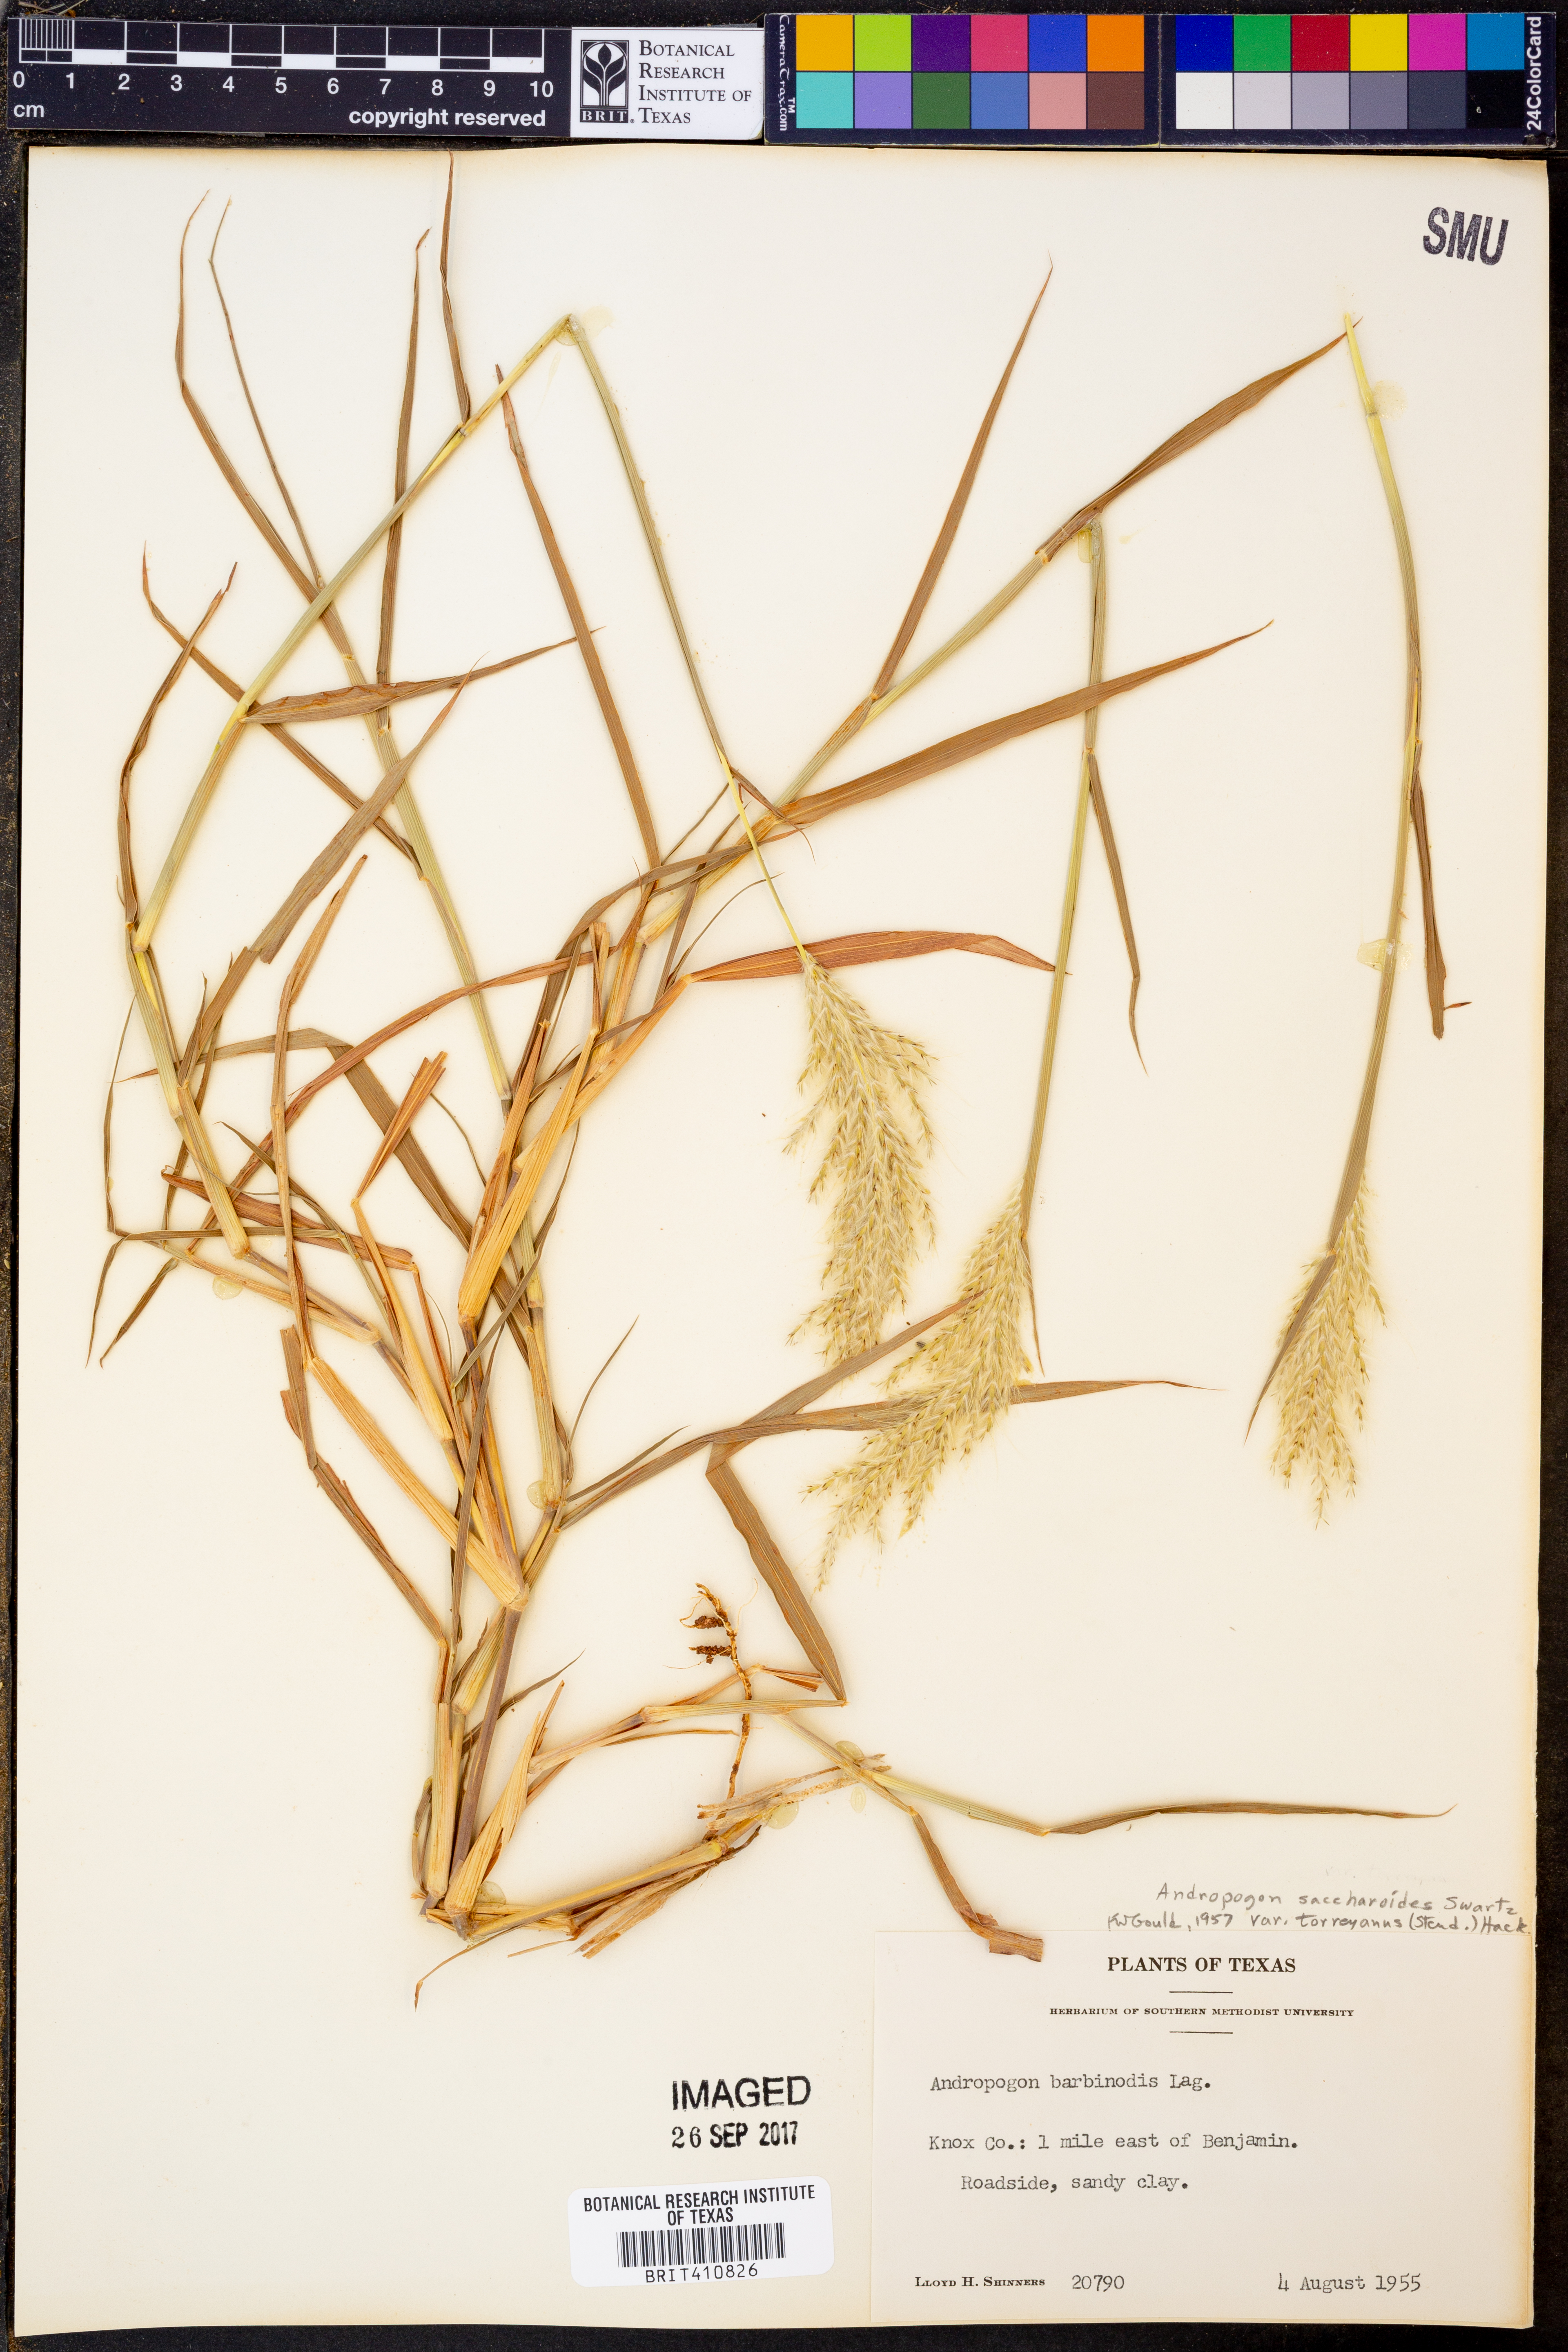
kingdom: Plantae
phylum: Tracheophyta
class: Liliopsida
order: Poales
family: Poaceae
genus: Bothriochloa
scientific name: Bothriochloa torreyana
